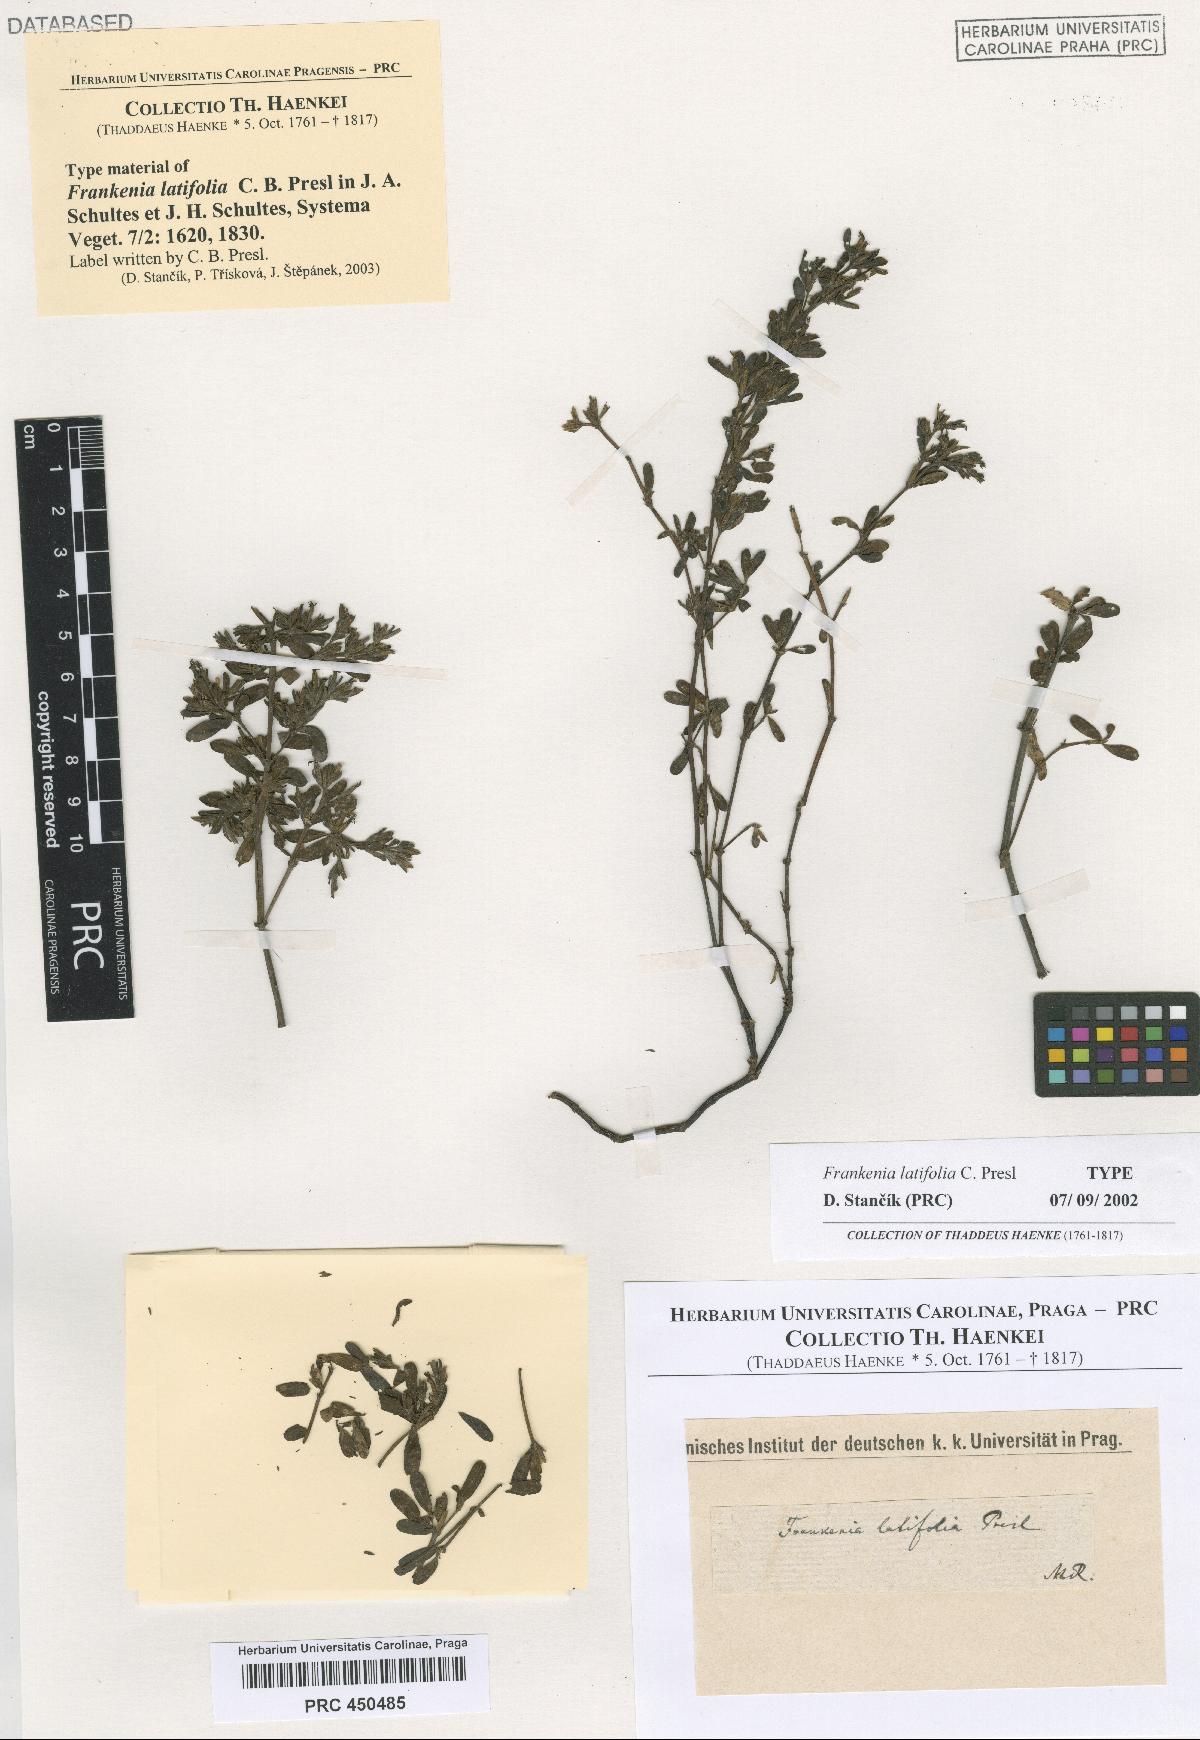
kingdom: Plantae
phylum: Tracheophyta
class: Magnoliopsida
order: Caryophyllales
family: Frankeniaceae
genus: Frankenia
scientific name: Frankenia latifolia
